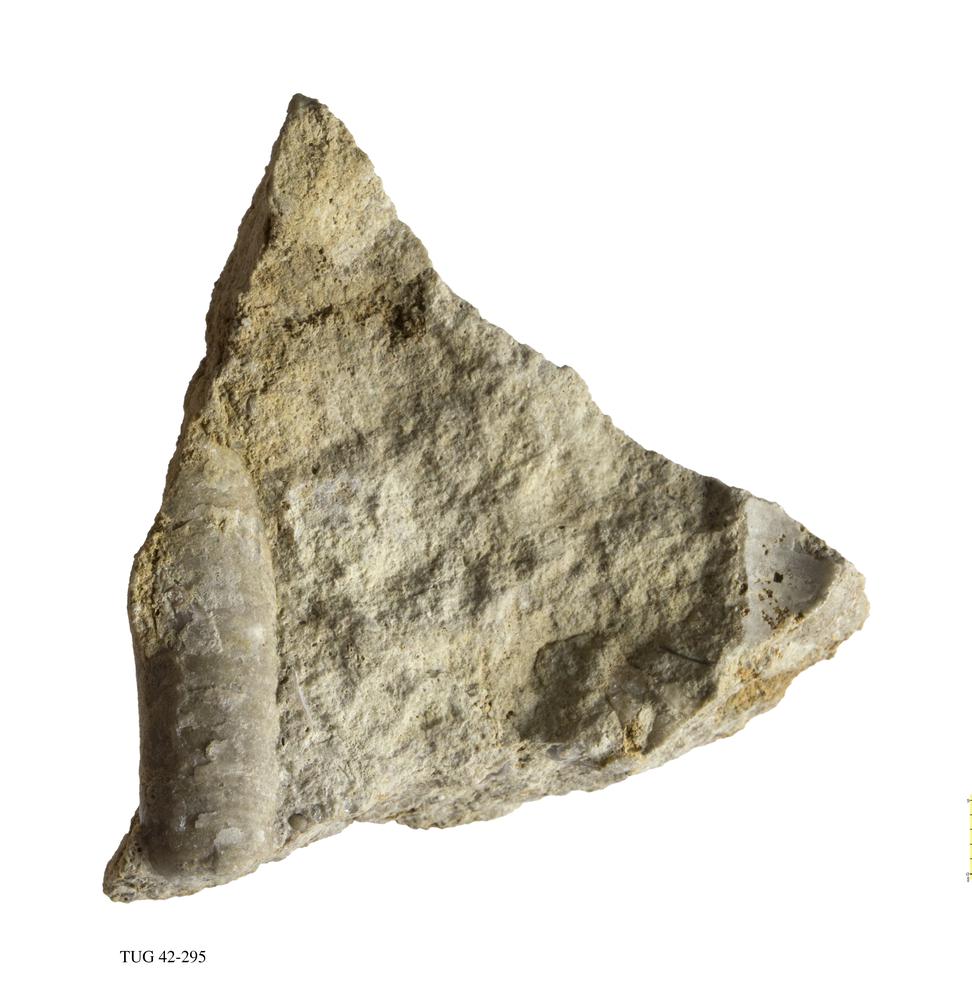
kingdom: Animalia
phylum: Mollusca
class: Cephalopoda
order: Orthocerida
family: Orthoceratidae
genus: Orthoceras
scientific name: Orthoceras
